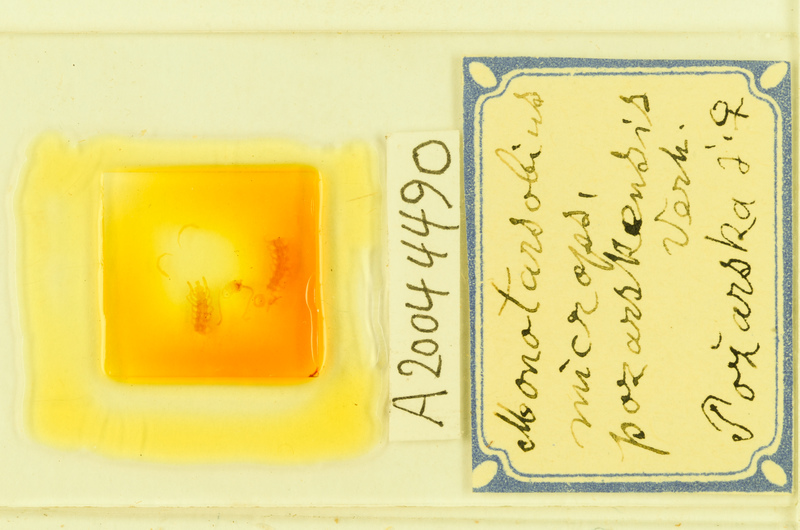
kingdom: Animalia
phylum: Arthropoda
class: Chilopoda
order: Lithobiomorpha
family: Lithobiidae
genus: Monotarsobius
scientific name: Monotarsobius microps
